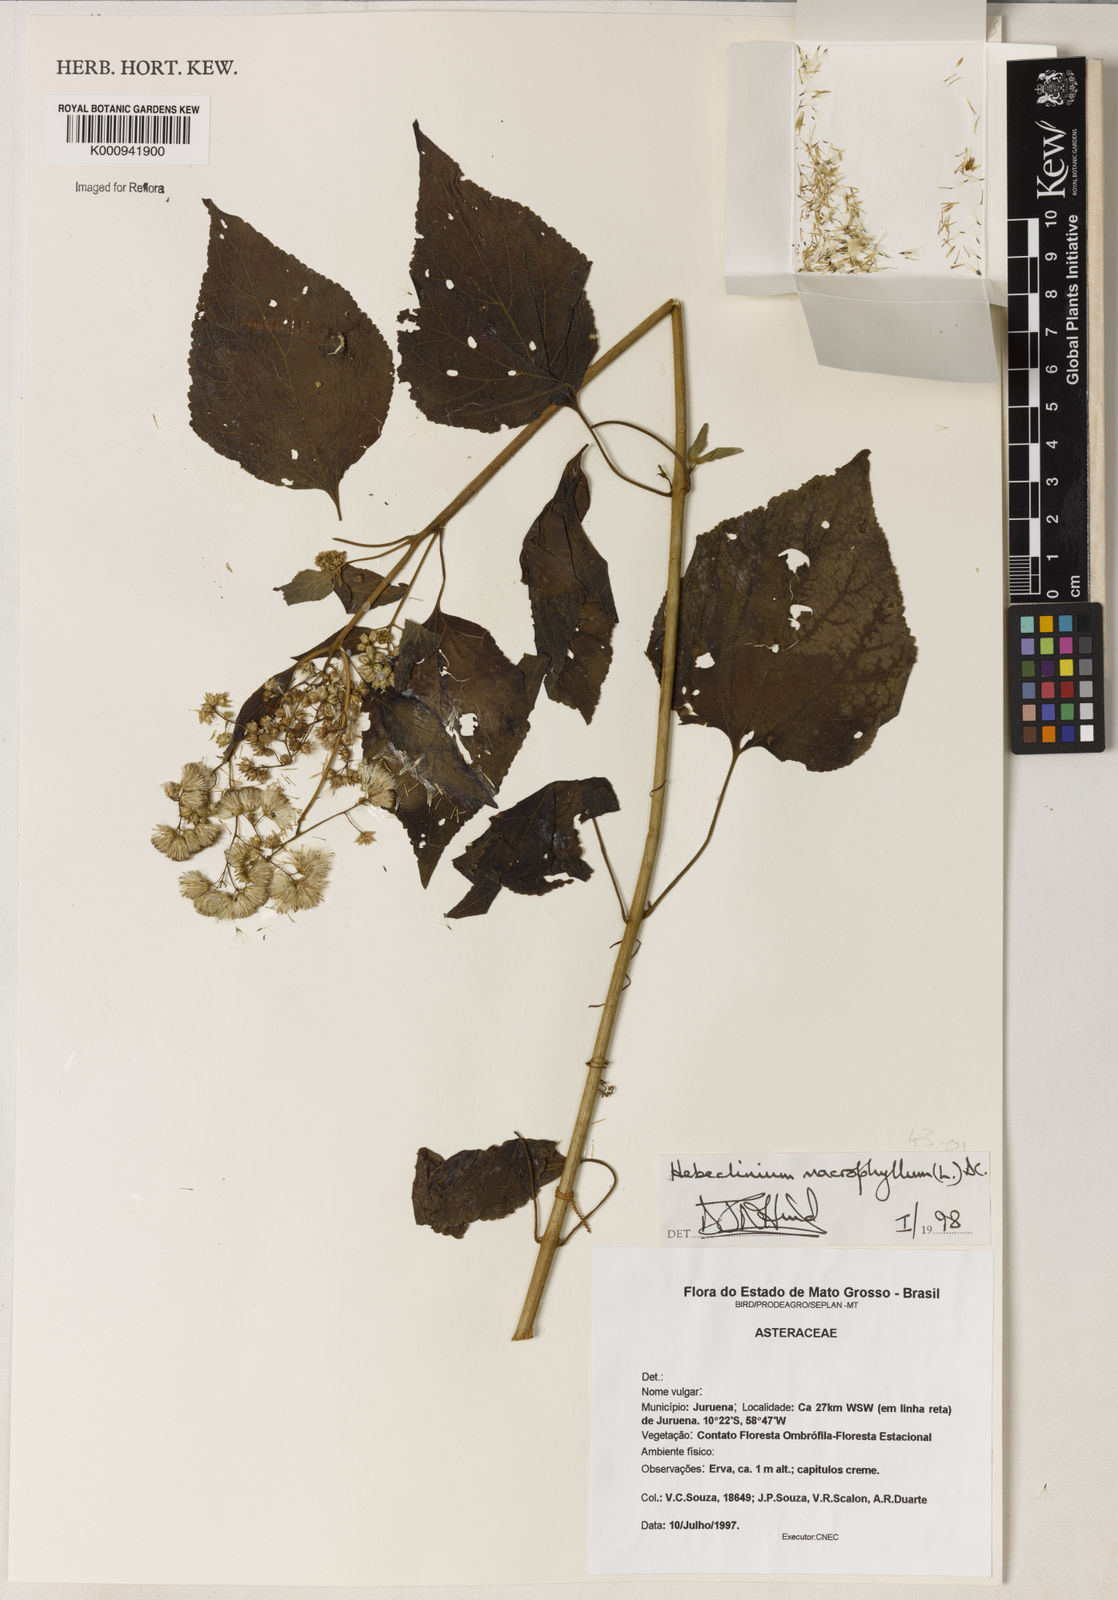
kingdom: Plantae
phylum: Tracheophyta
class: Magnoliopsida
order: Asterales
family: Asteraceae
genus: Hebeclinium
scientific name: Hebeclinium macrophyllum
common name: Largeleaf thoroughwort
